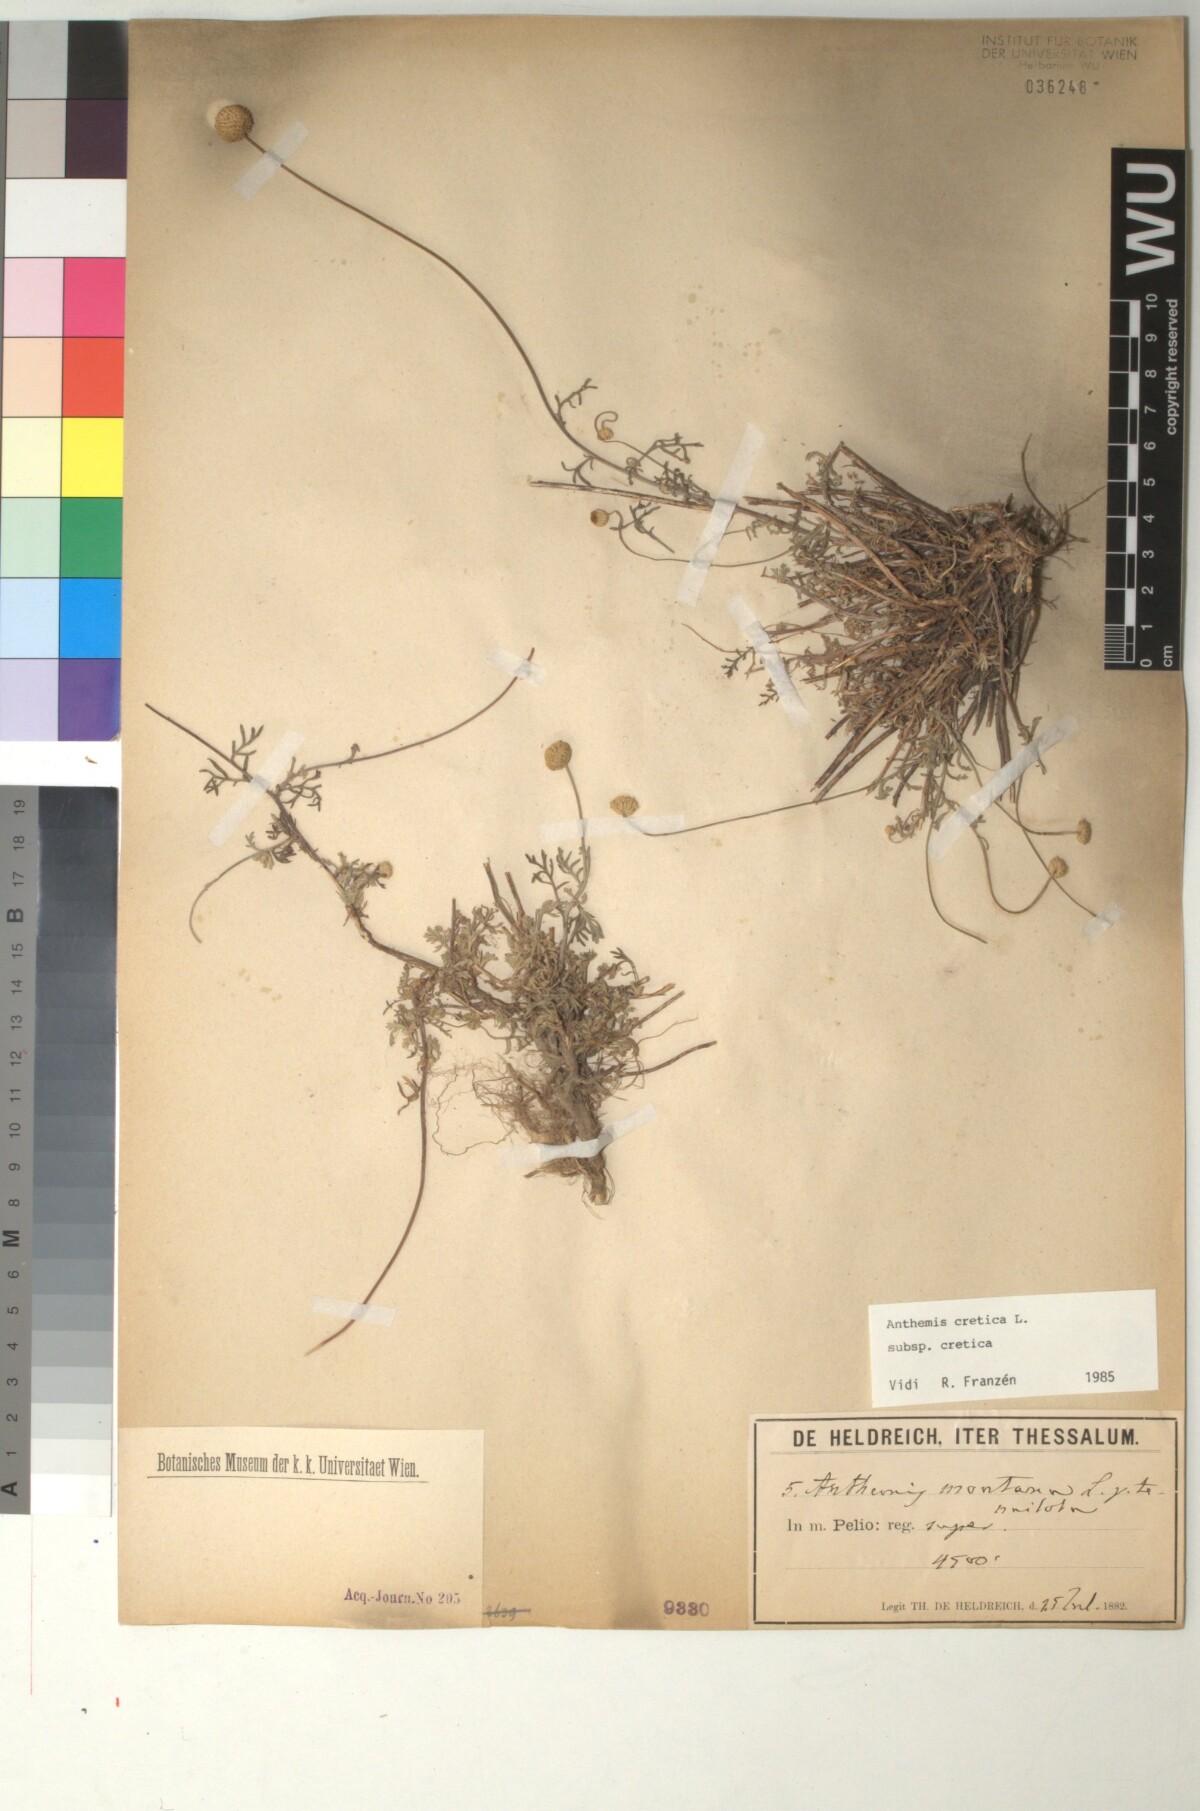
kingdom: Plantae
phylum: Tracheophyta
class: Magnoliopsida
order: Asterales
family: Asteraceae
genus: Anthemis
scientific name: Anthemis cretica
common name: Mountain dog-daisy
